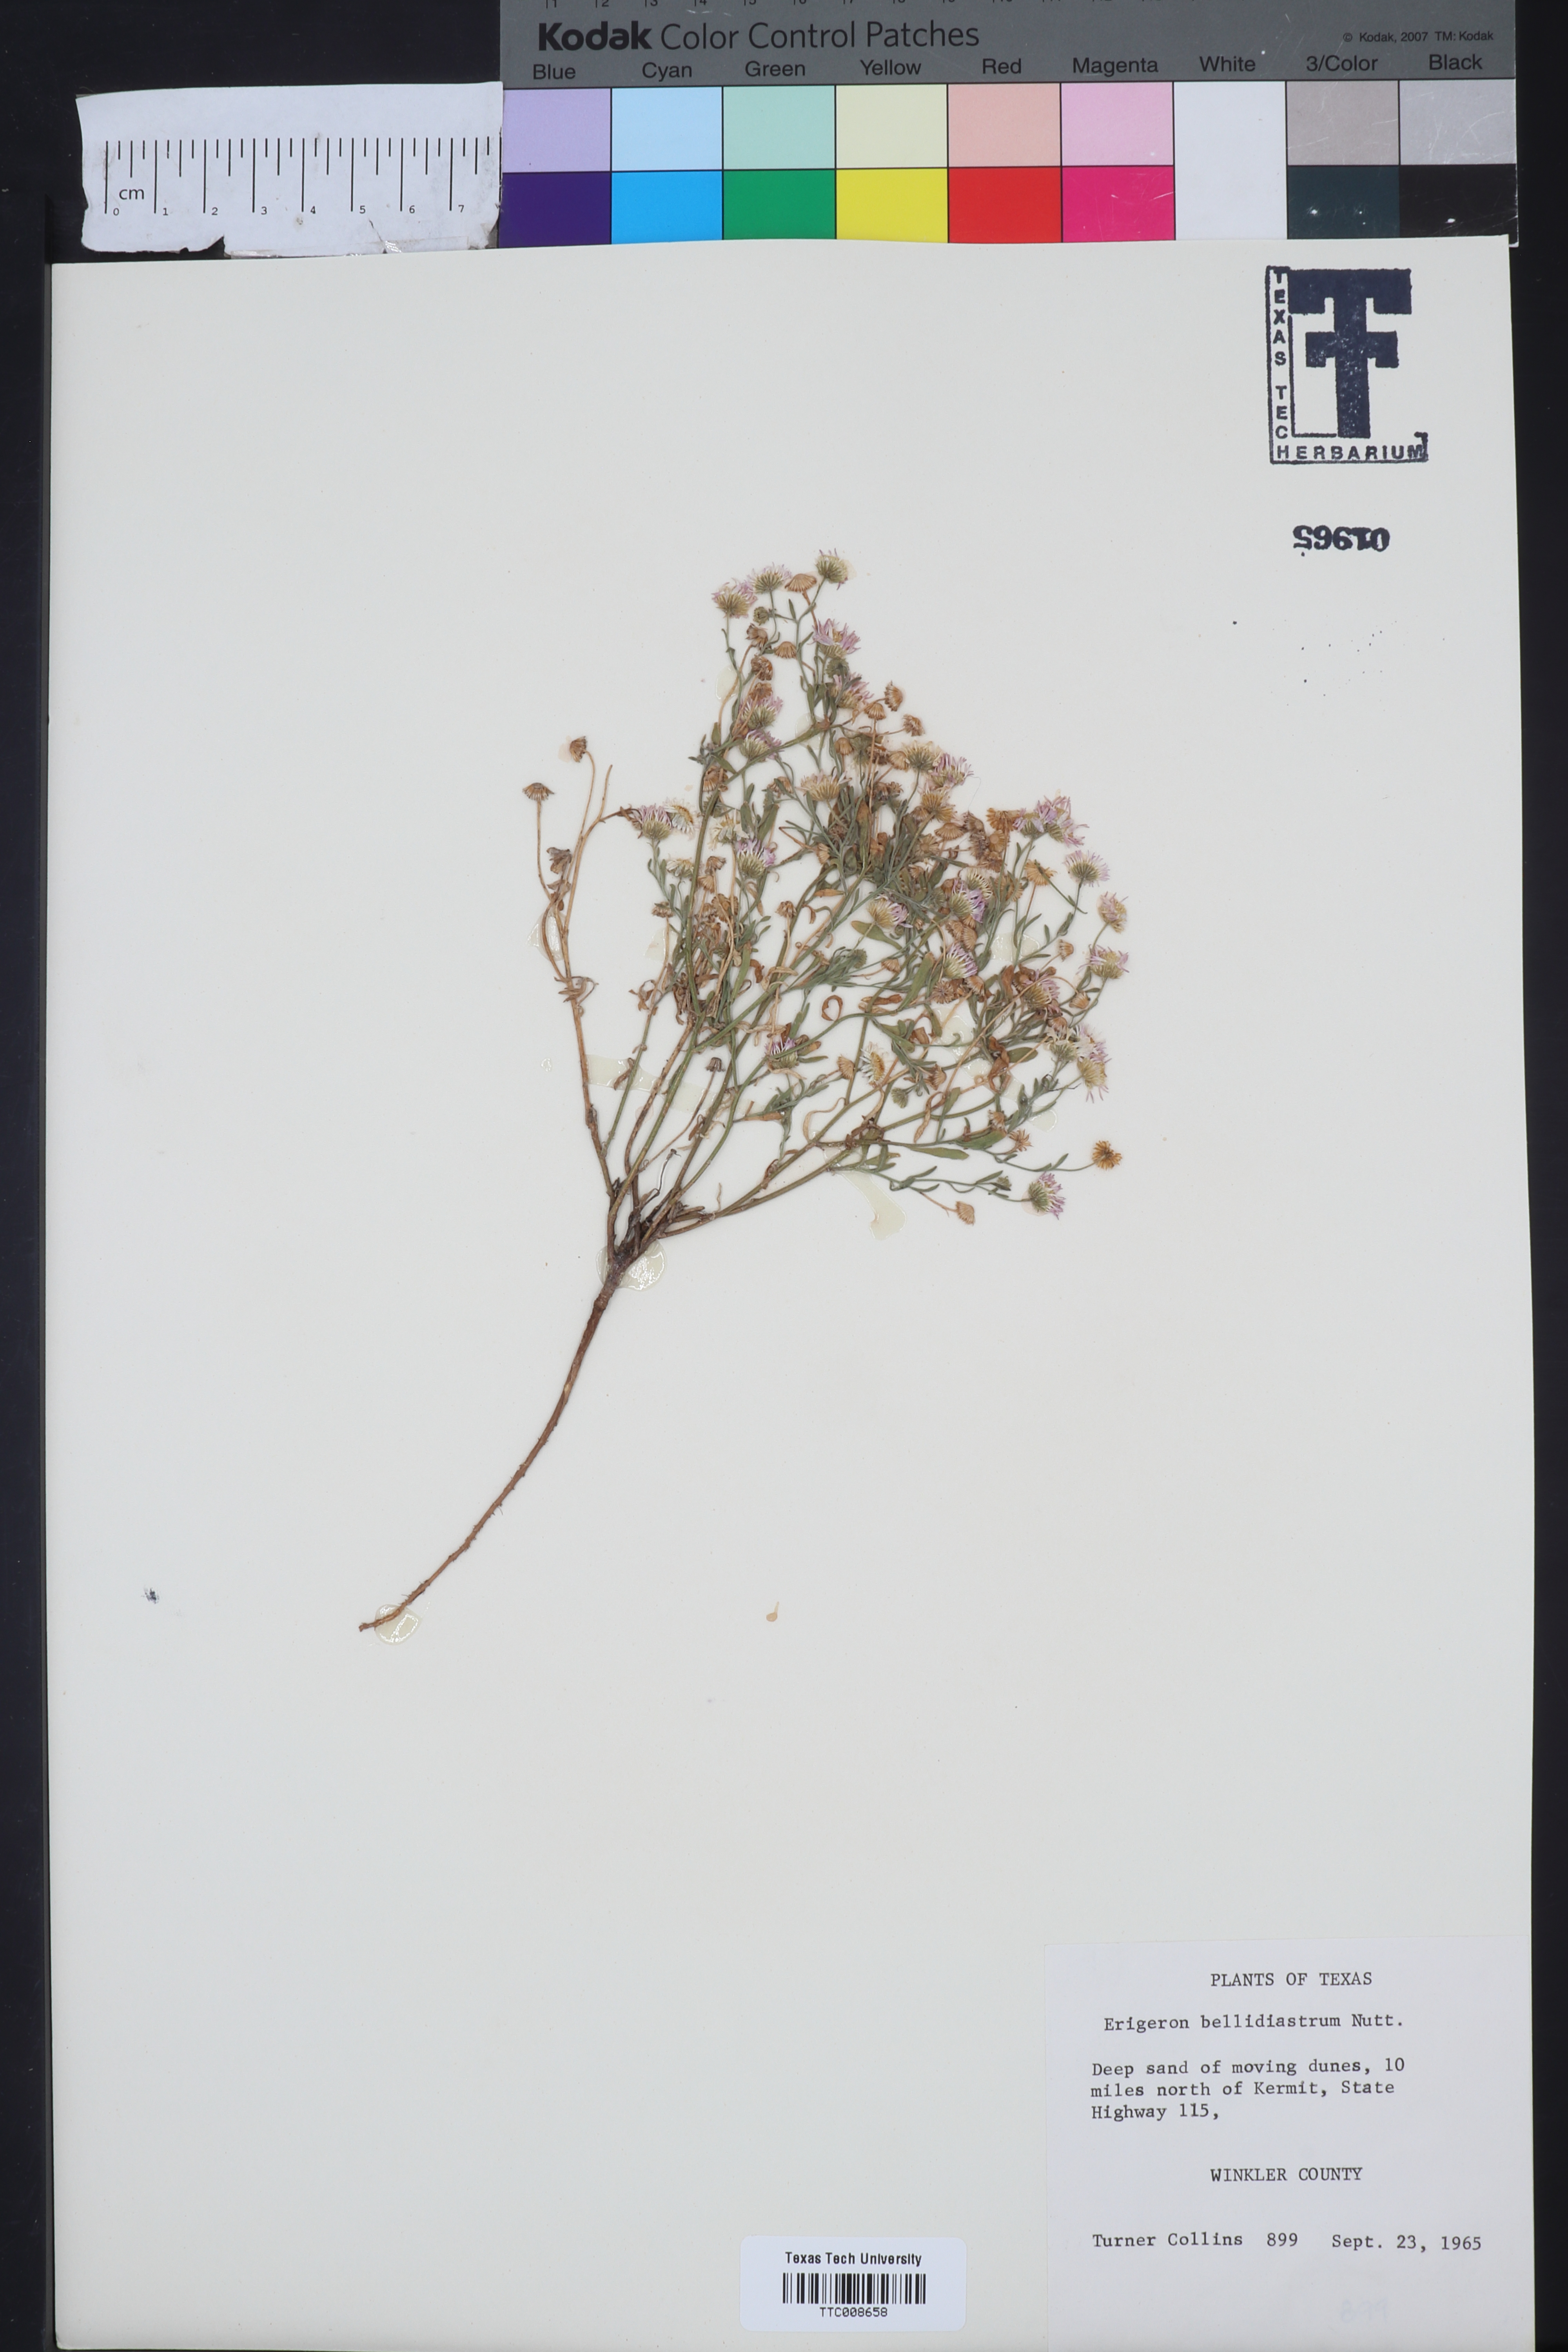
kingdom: Plantae
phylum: Tracheophyta
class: Magnoliopsida
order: Asterales
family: Asteraceae
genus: Erigeron
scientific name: Erigeron bellidiastrum
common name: Sand fleabane
